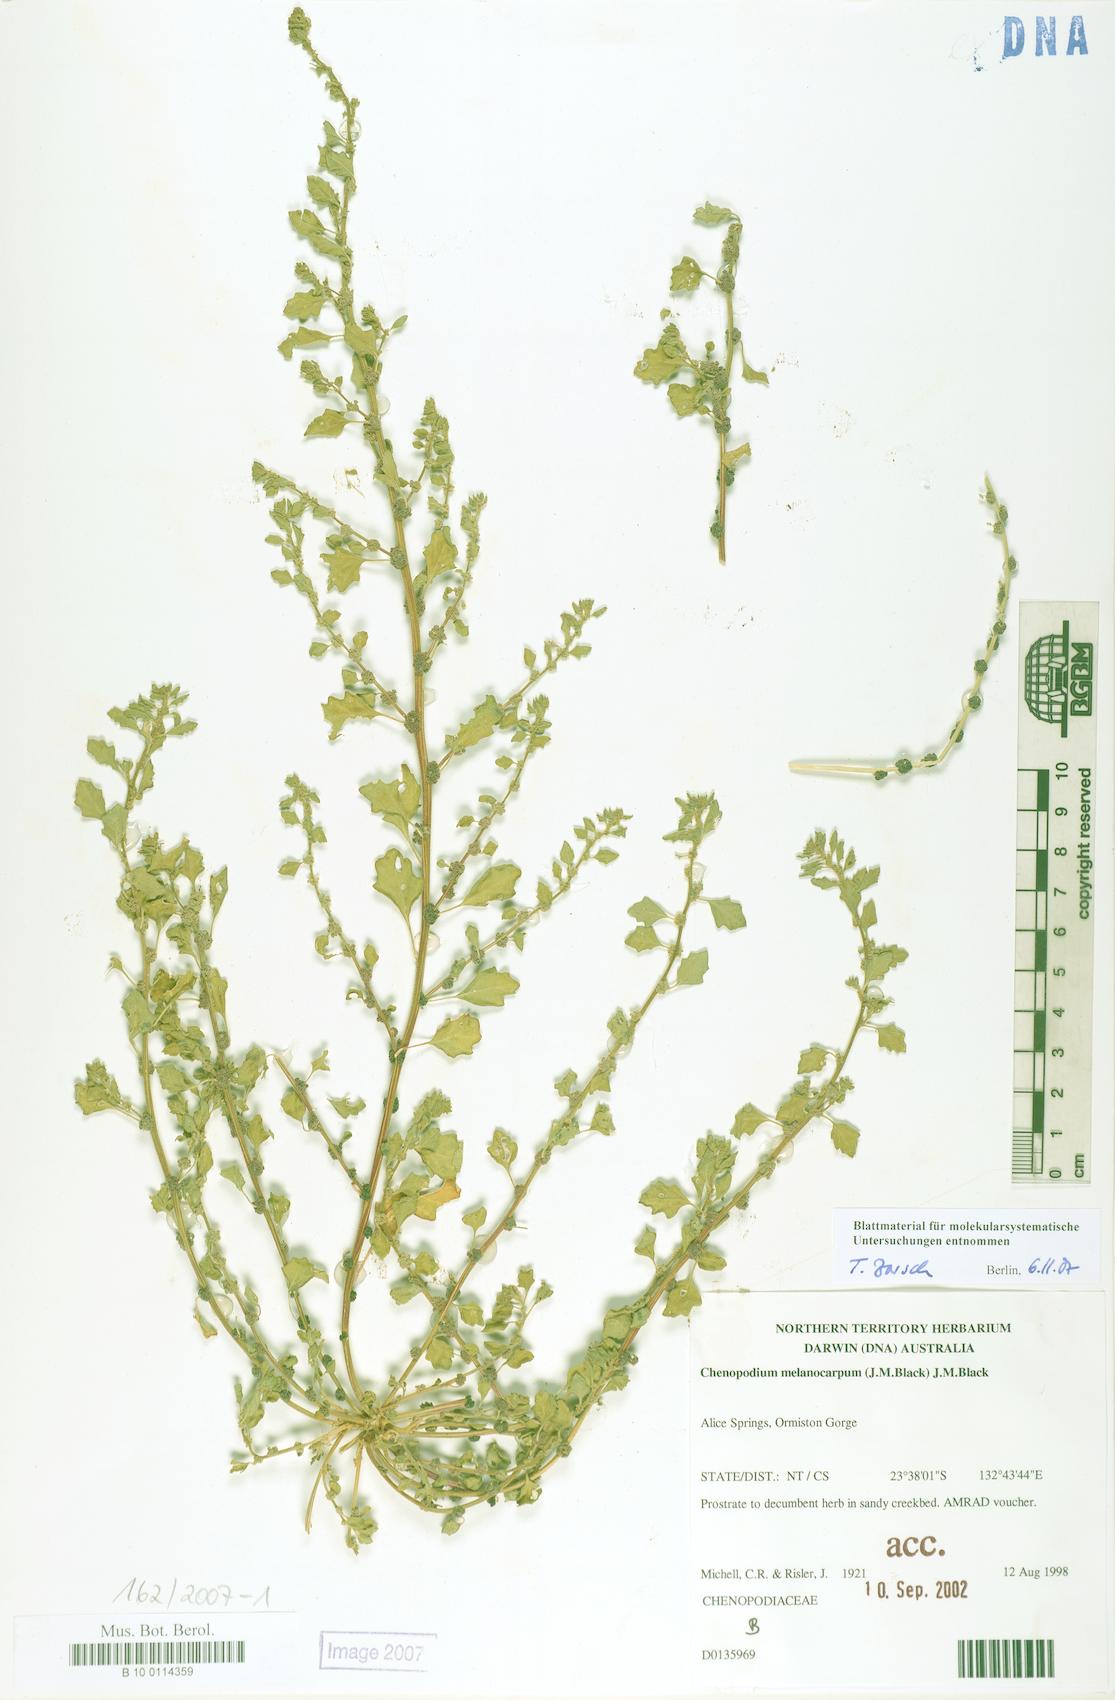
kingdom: Plantae
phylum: Tracheophyta
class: Magnoliopsida
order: Caryophyllales
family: Amaranthaceae
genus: Dysphania
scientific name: Dysphania melanocarpa
